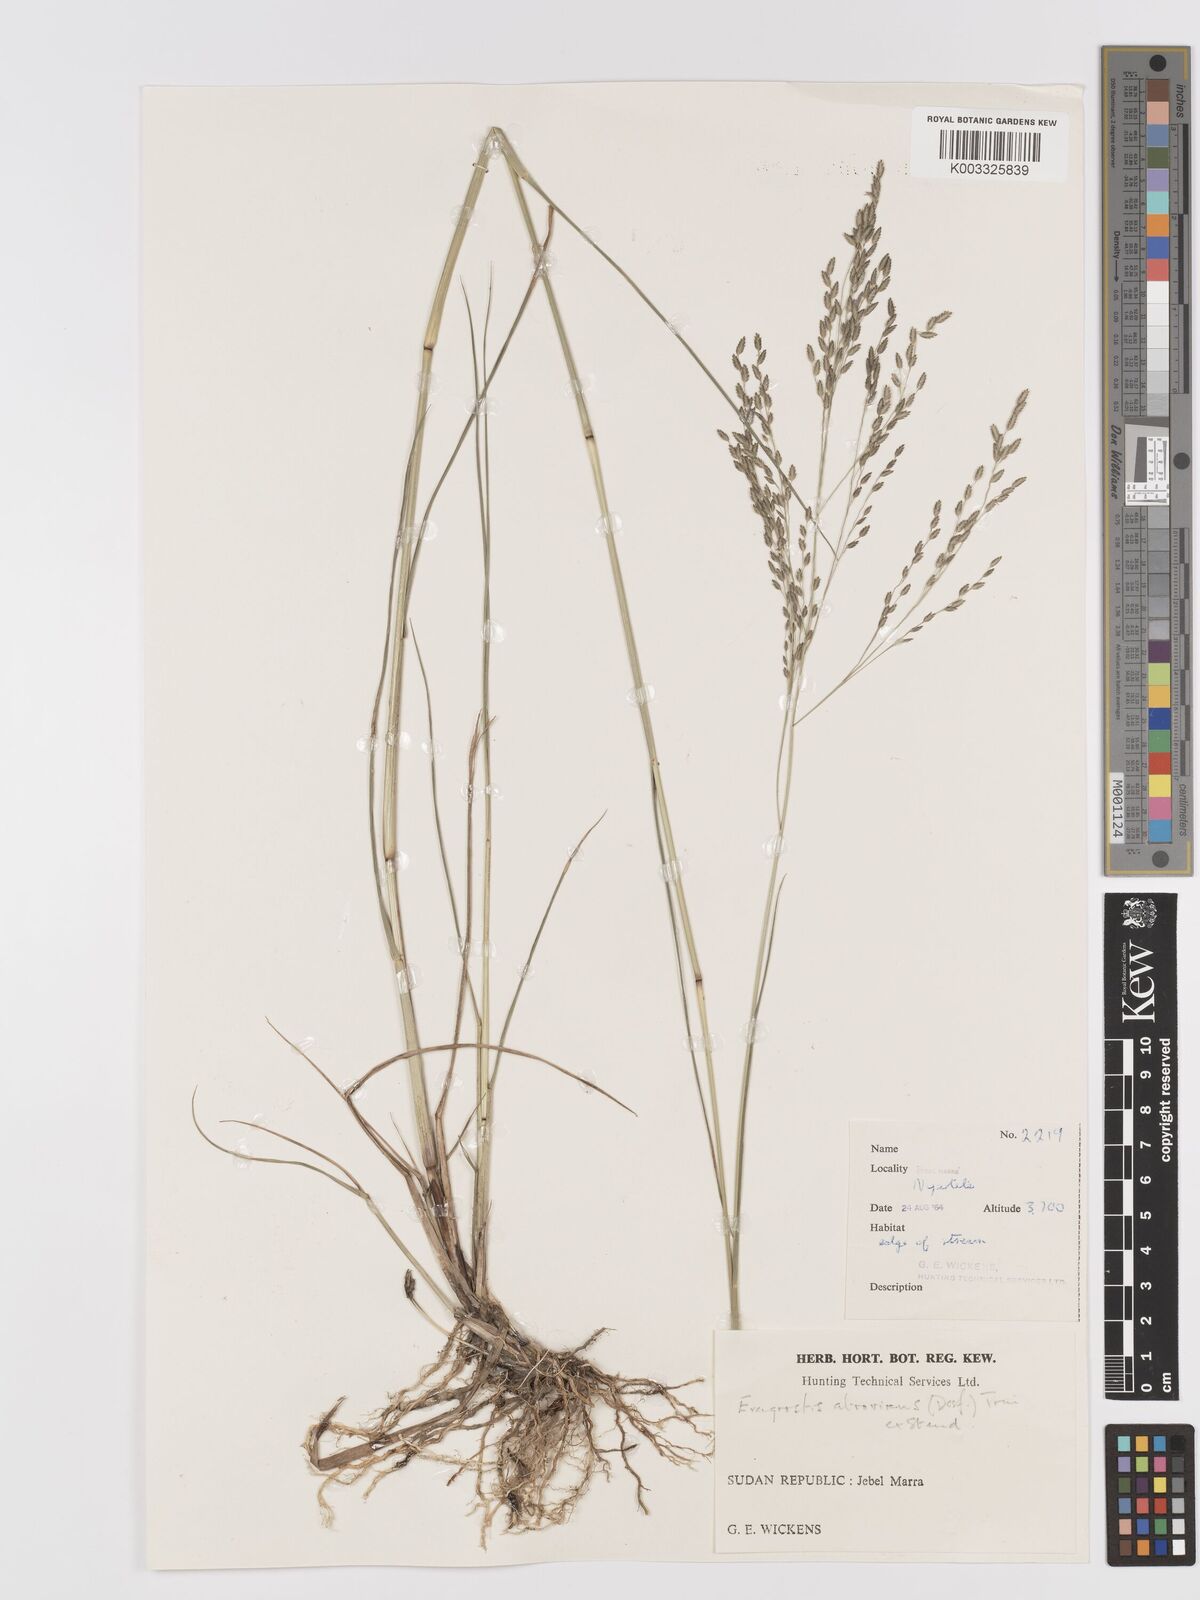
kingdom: Plantae
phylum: Tracheophyta
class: Liliopsida
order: Poales
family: Poaceae
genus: Eragrostis
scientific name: Eragrostis atrovirens
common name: Thalia lovegrass
